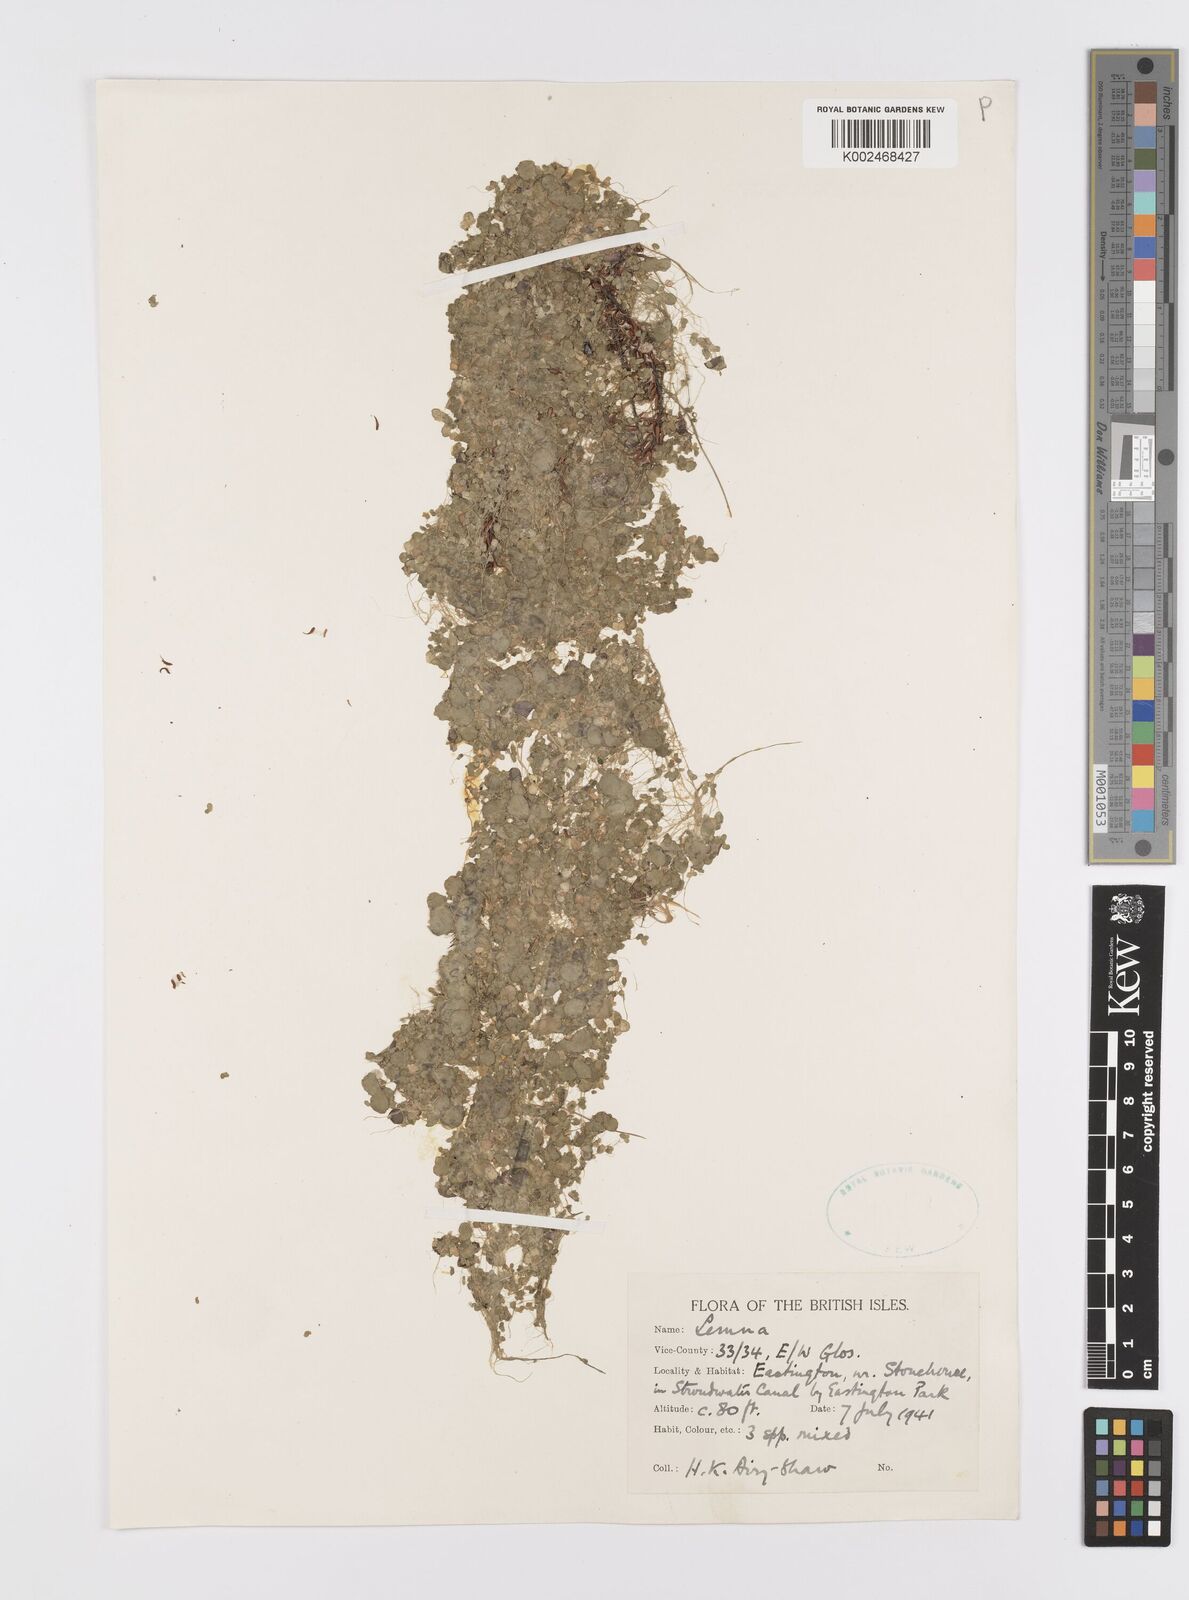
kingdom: Plantae
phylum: Tracheophyta
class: Liliopsida
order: Alismatales
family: Araceae
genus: Wolffia
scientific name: Wolffia
